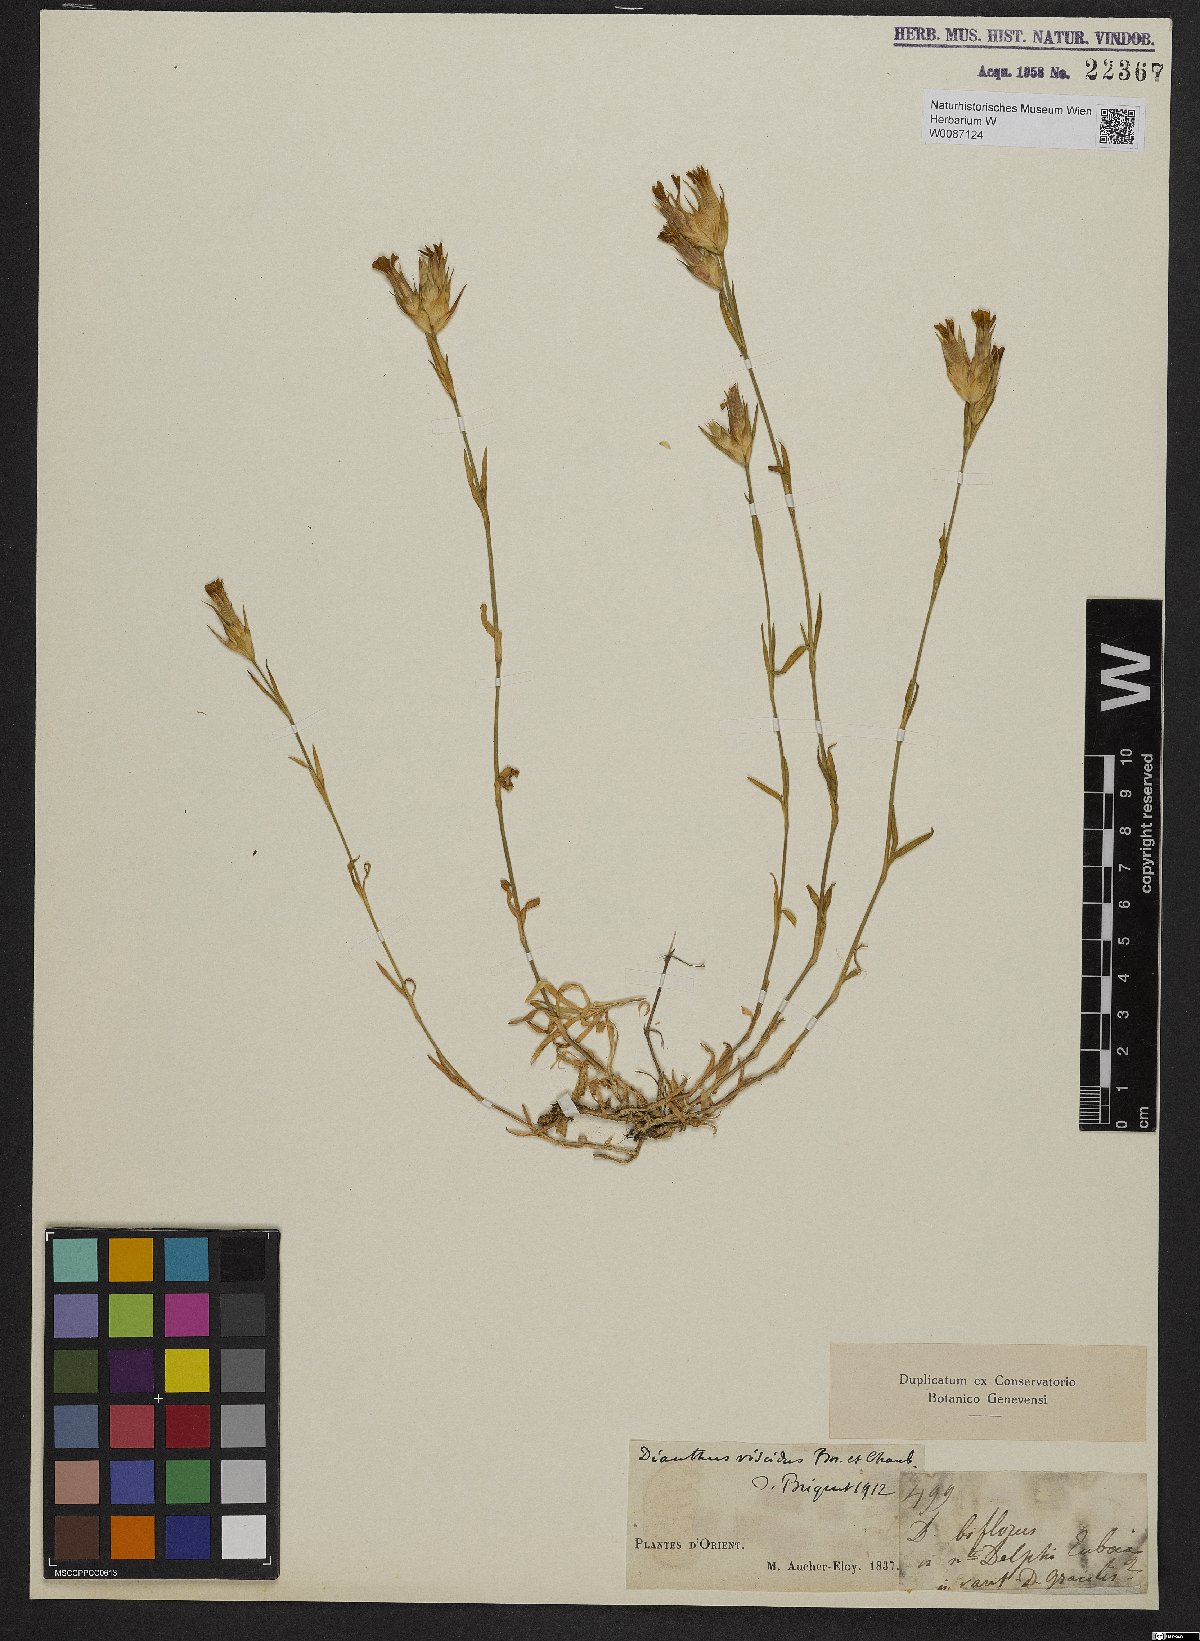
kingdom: Plantae
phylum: Tracheophyta
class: Magnoliopsida
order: Caryophyllales
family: Caryophyllaceae
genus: Dianthus
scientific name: Dianthus viscidus
